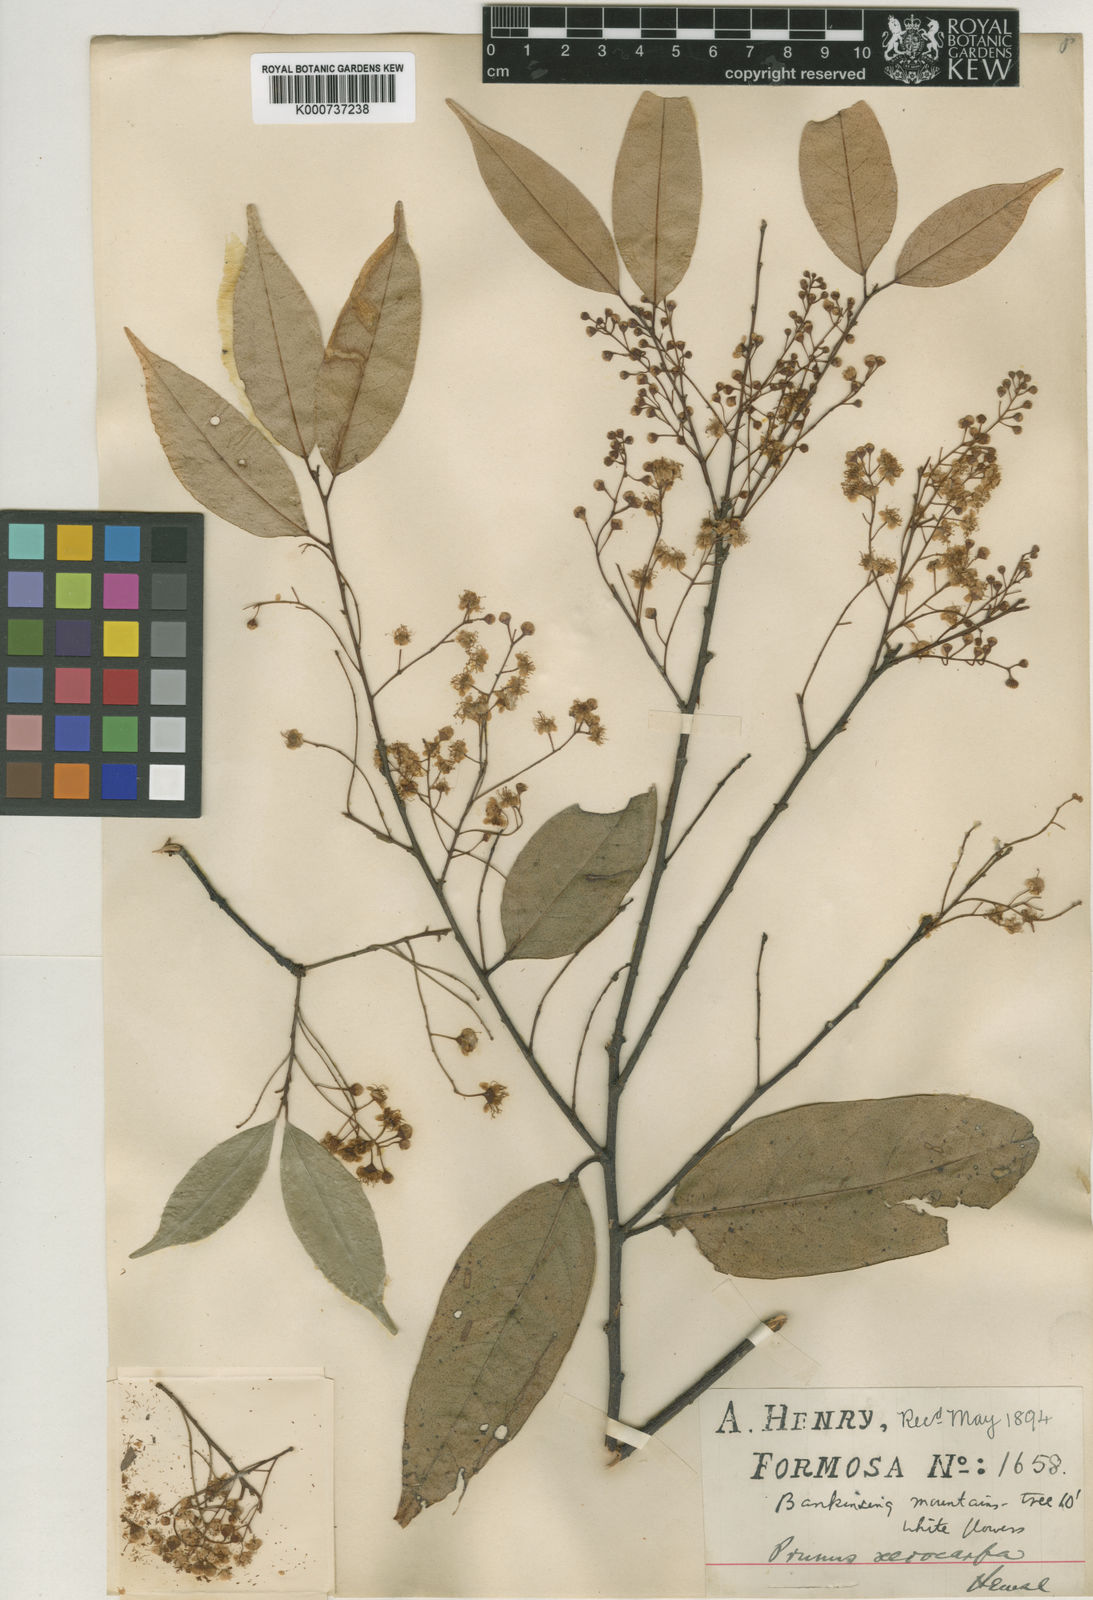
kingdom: Plantae
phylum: Tracheophyta
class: Magnoliopsida
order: Rosales
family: Rosaceae
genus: Prunus
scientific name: Prunus phaeosticta
